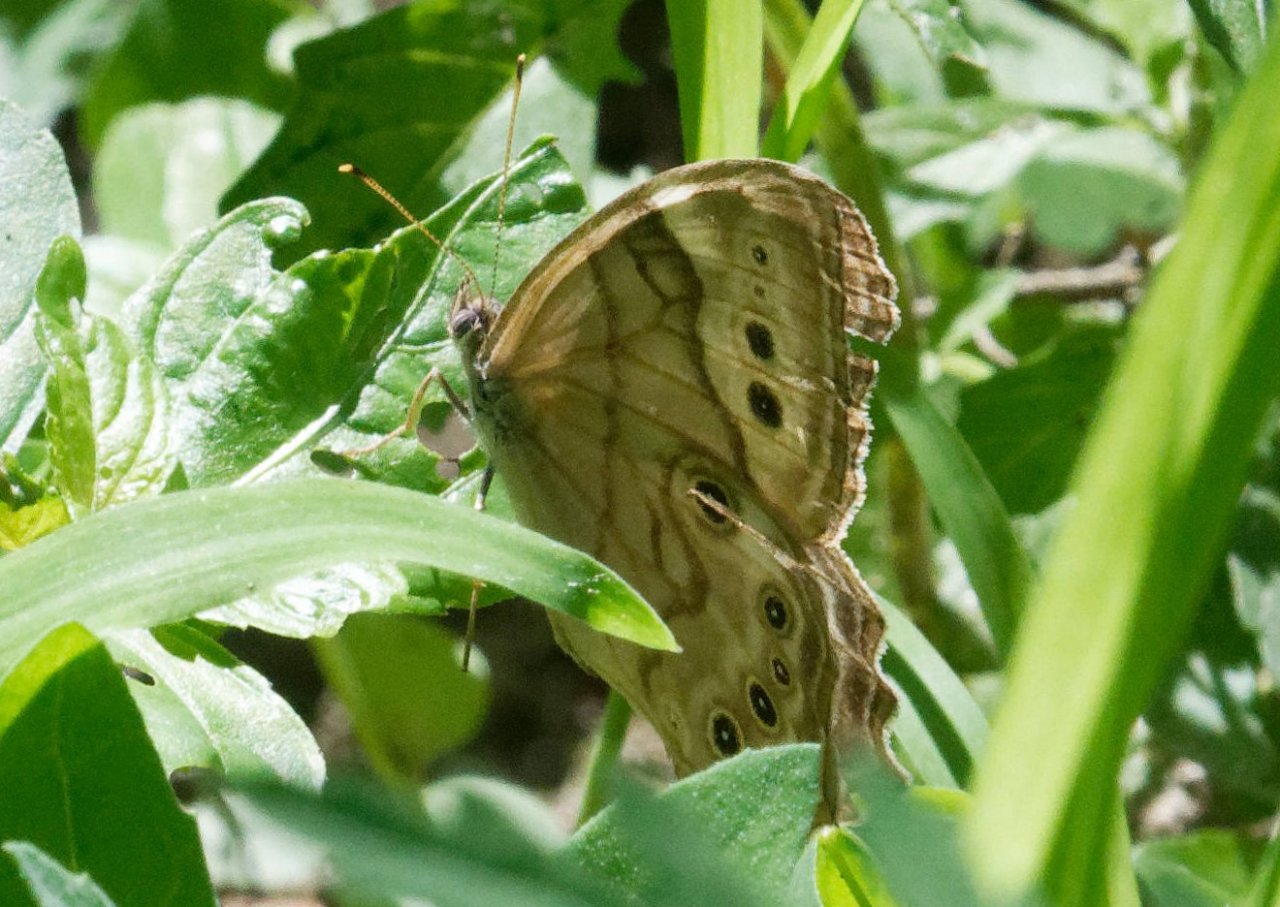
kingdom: Animalia
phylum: Arthropoda
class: Insecta
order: Lepidoptera
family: Nymphalidae
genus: Lethe
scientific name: Lethe anthedon
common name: Northern Pearly-Eye
